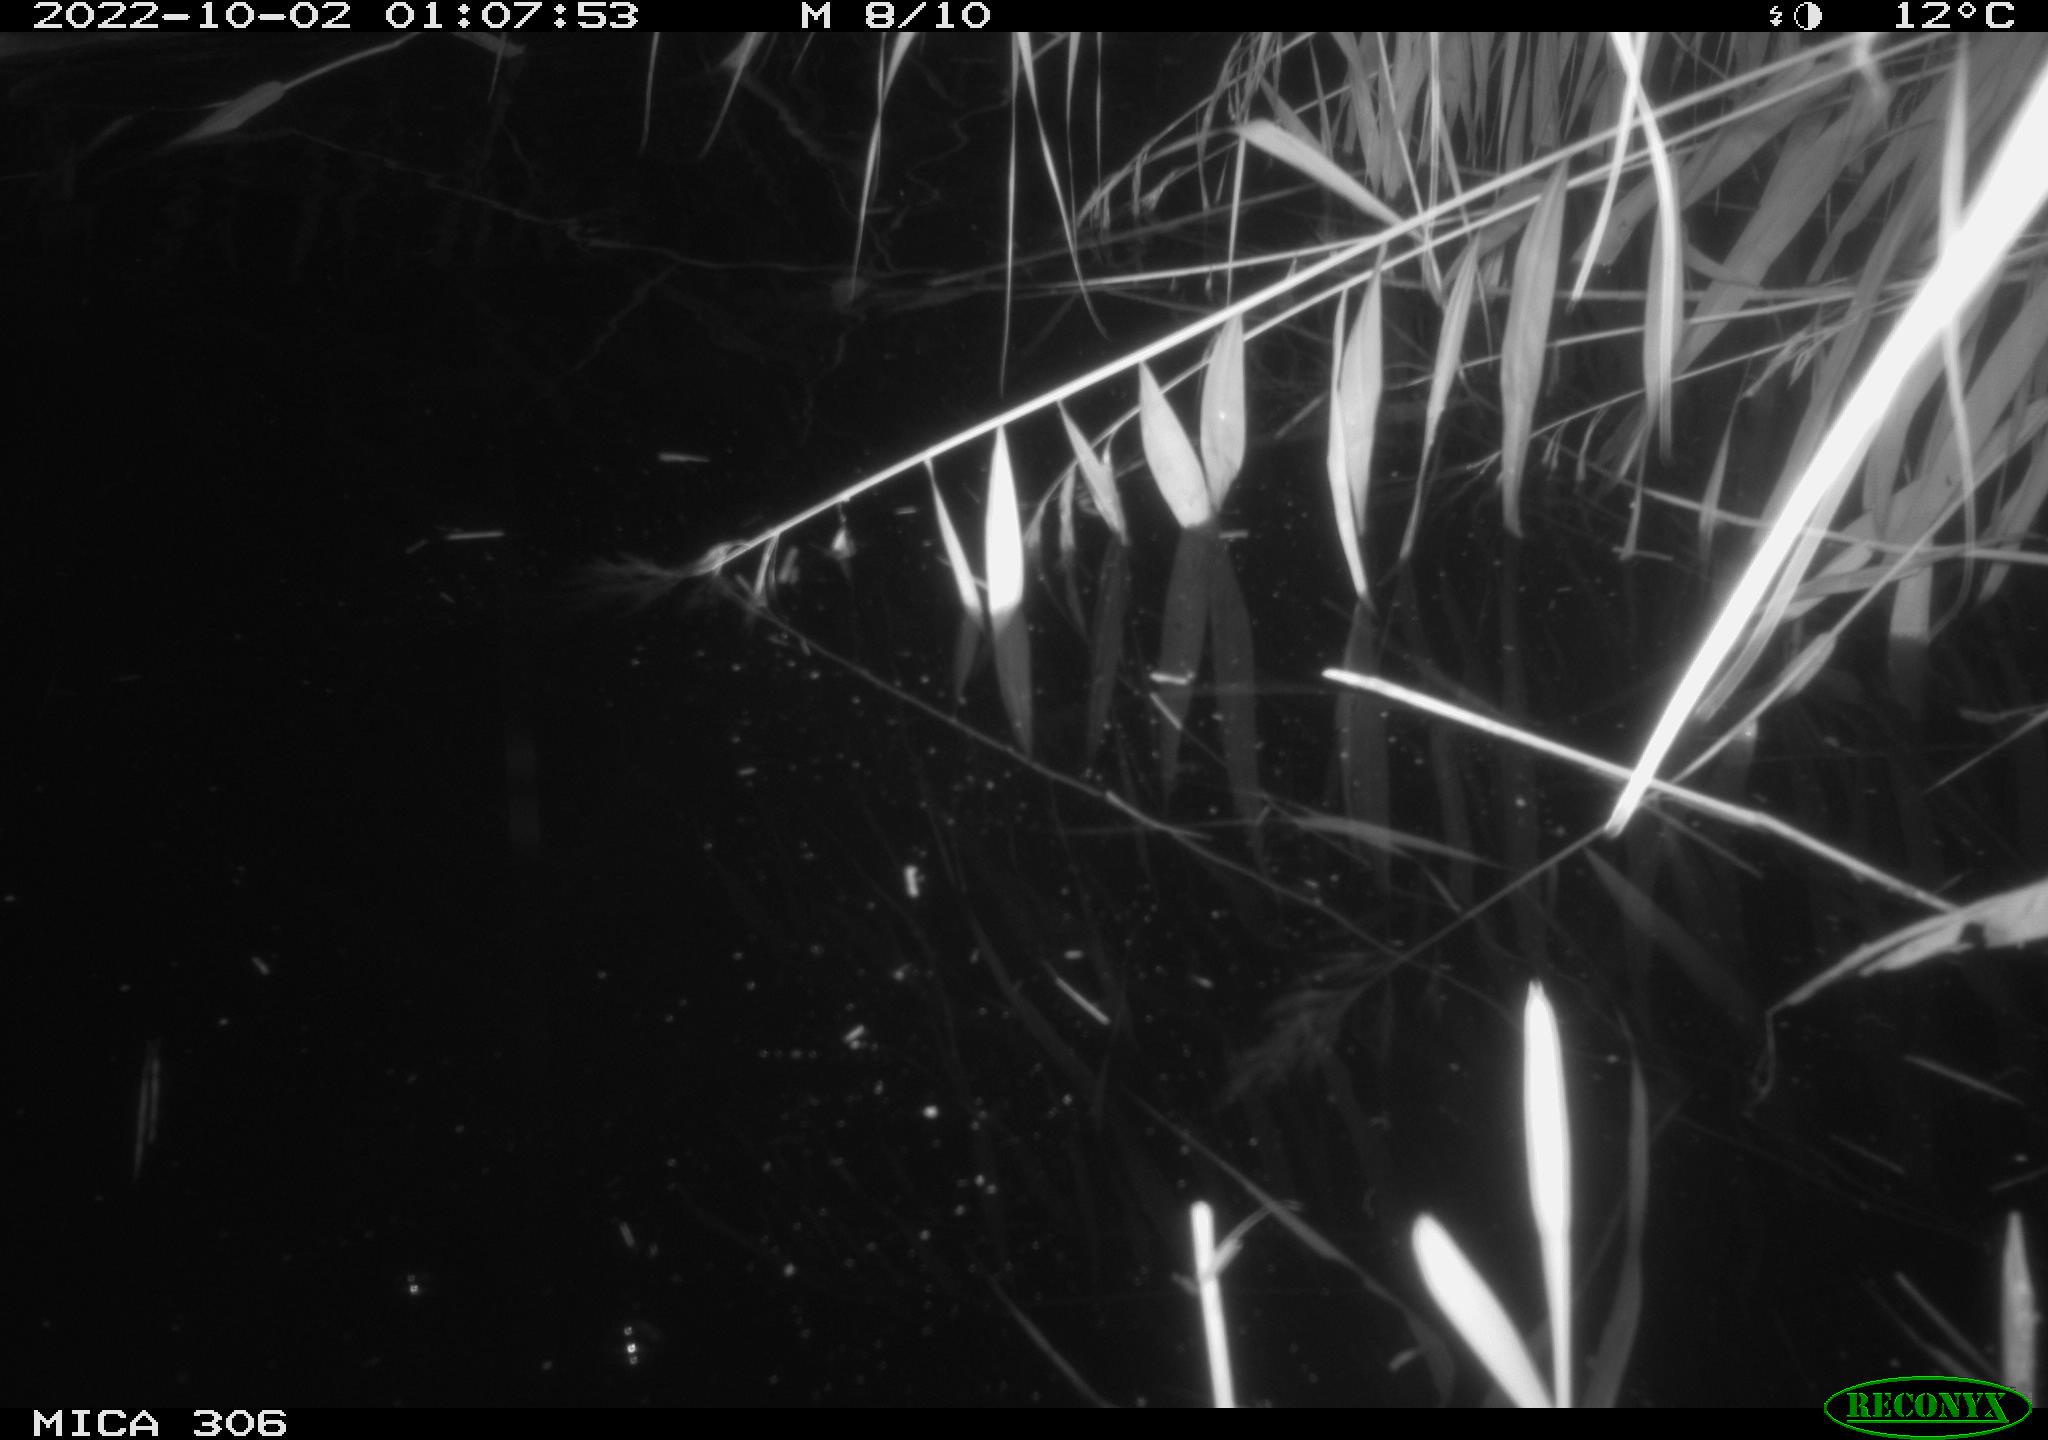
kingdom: Animalia
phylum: Chordata
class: Mammalia
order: Rodentia
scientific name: Rodentia
